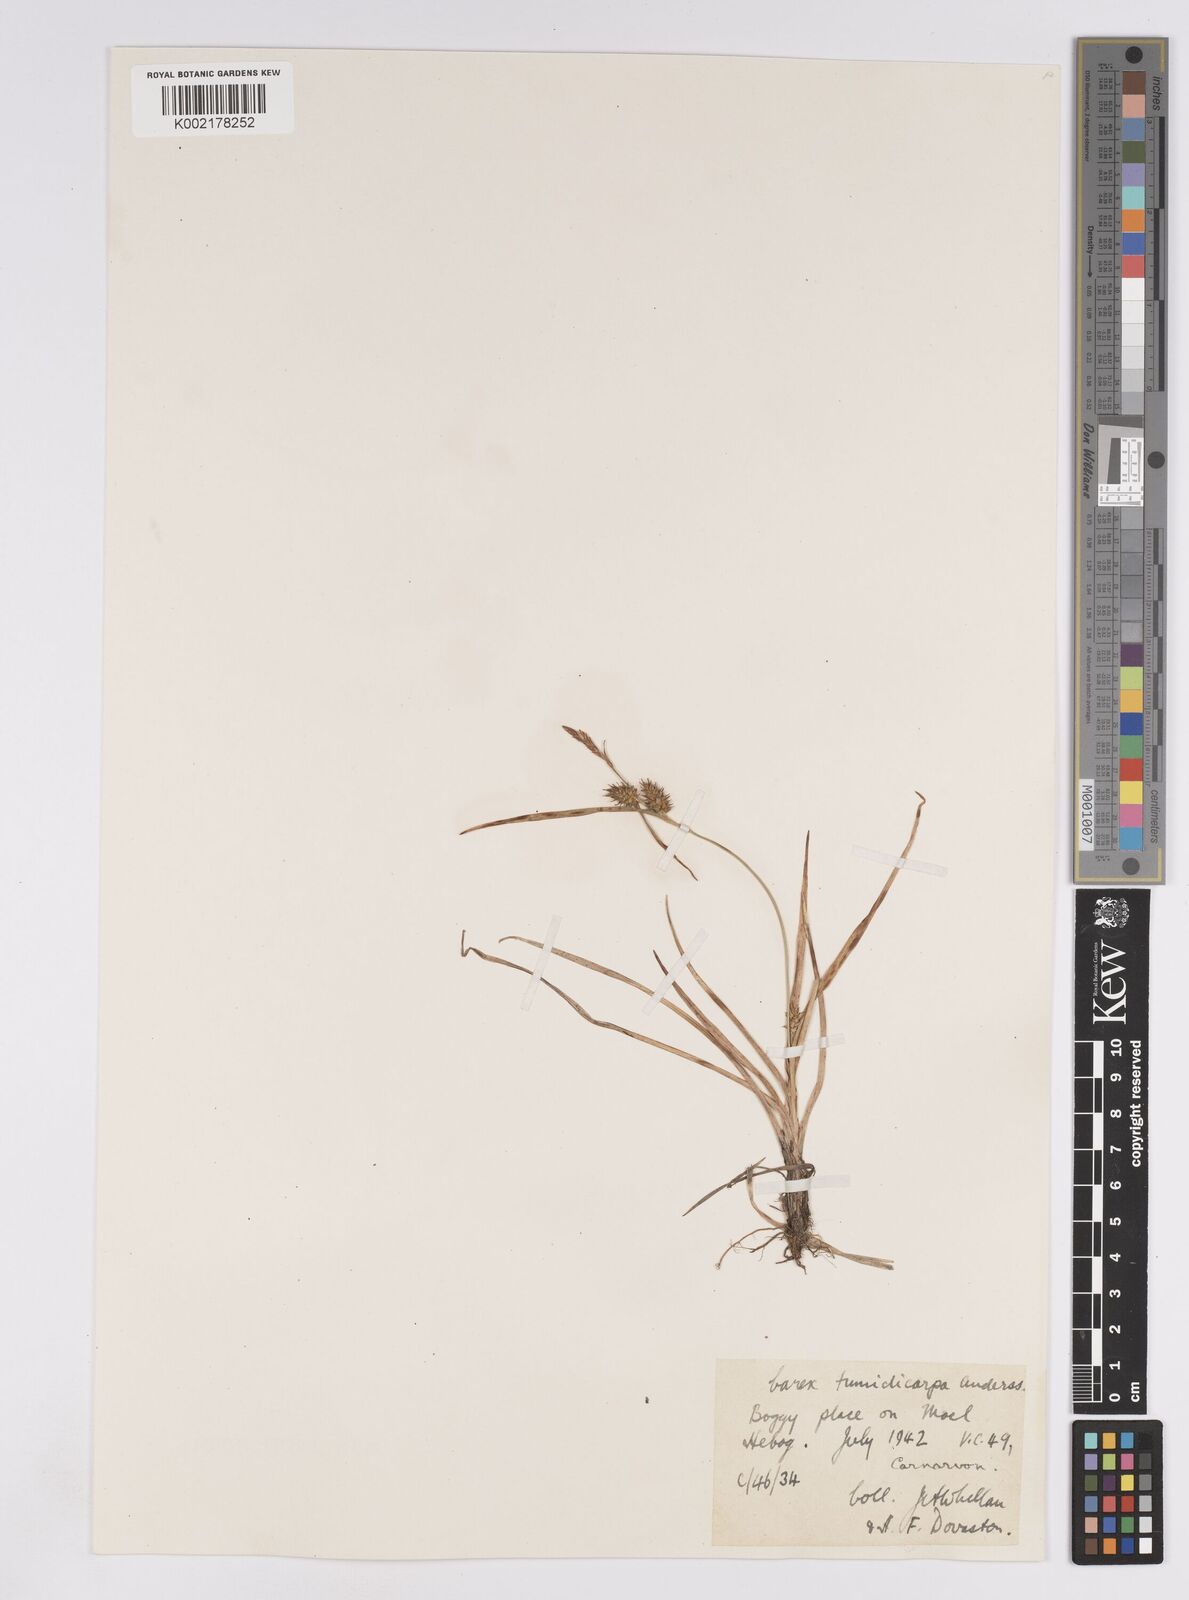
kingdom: Plantae
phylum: Tracheophyta
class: Liliopsida
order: Poales
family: Cyperaceae
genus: Carex
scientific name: Carex demissa
